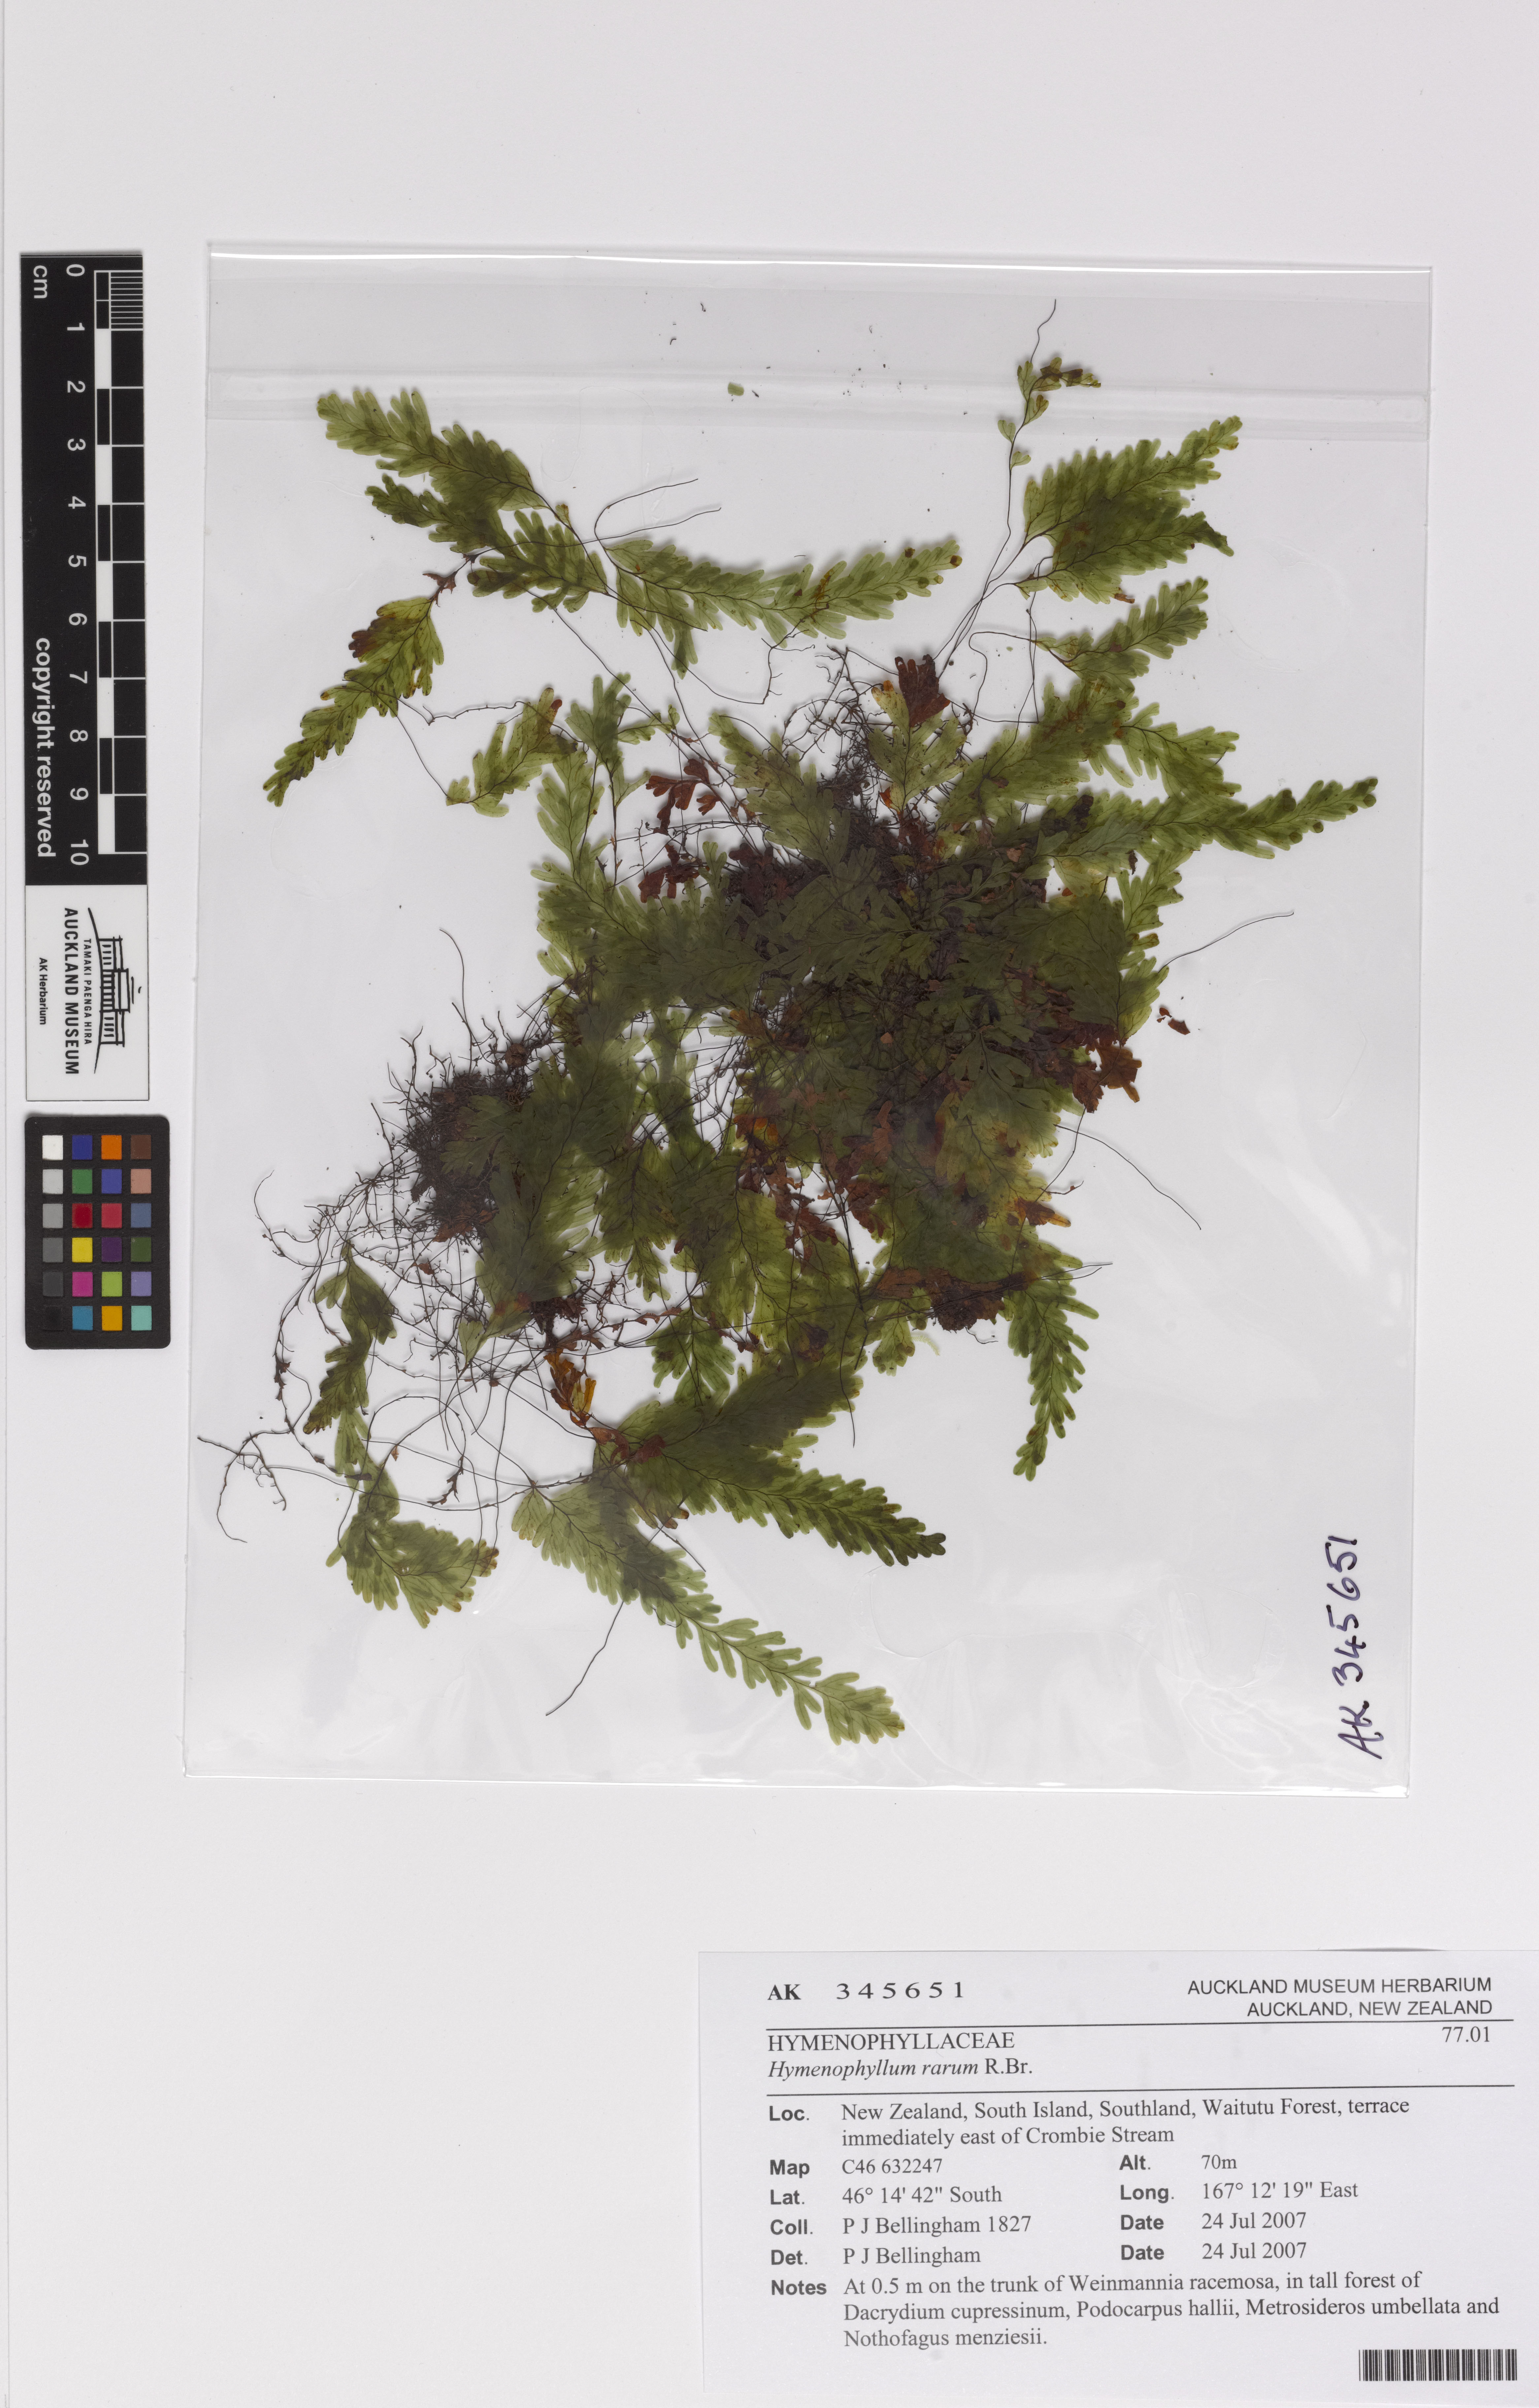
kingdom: Plantae
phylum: Tracheophyta
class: Polypodiopsida
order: Hymenophyllales
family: Hymenophyllaceae
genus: Hymenophyllum
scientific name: Hymenophyllum rarum
